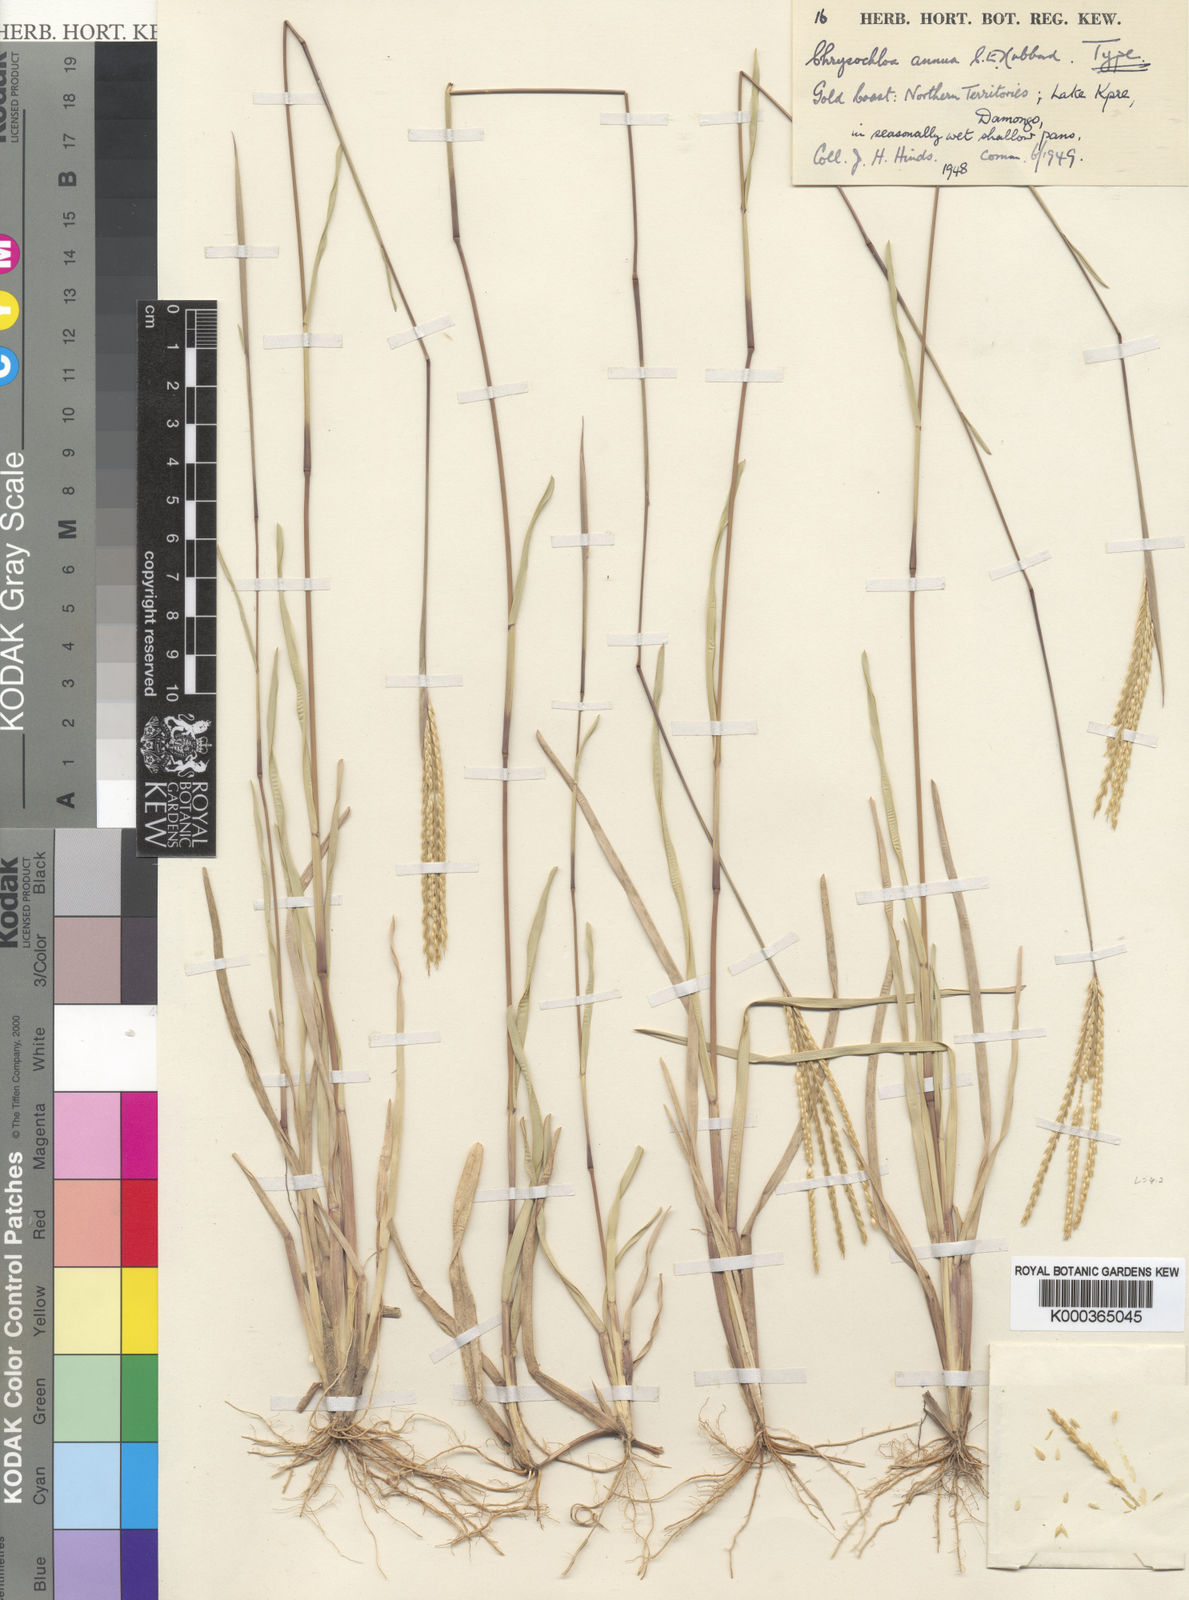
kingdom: Plantae
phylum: Tracheophyta
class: Liliopsida
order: Poales
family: Poaceae
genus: Chrysochloa
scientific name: Chrysochloa hindsii
